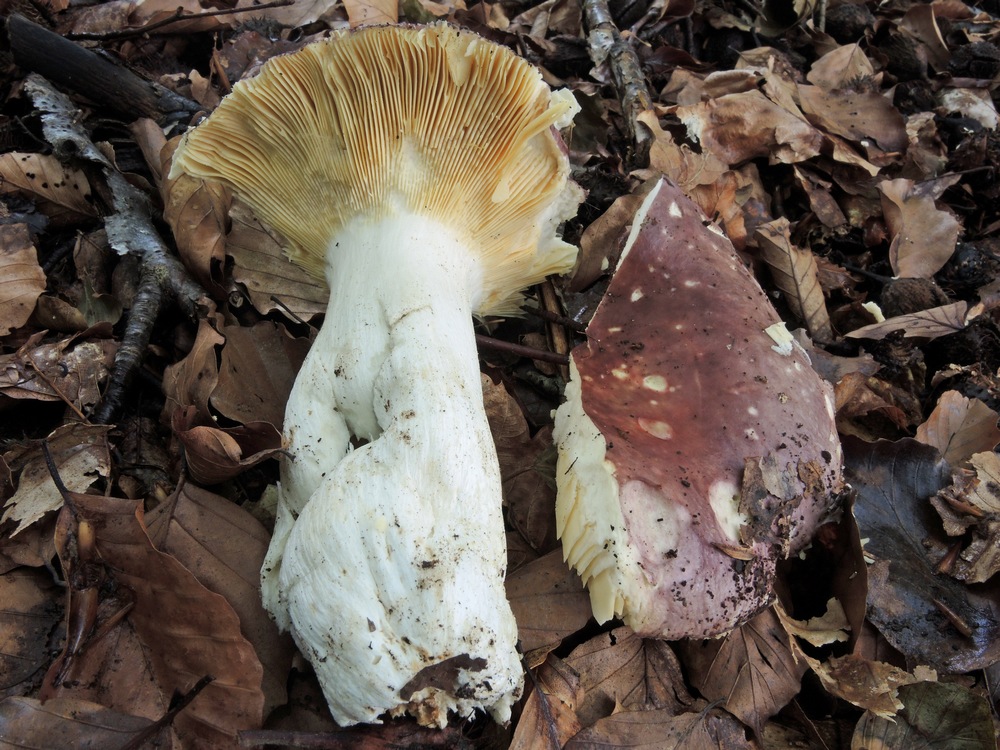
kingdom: Fungi
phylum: Basidiomycota
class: Agaricomycetes
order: Russulales
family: Russulaceae
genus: Russula
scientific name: Russula romellii
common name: romells skørhat
